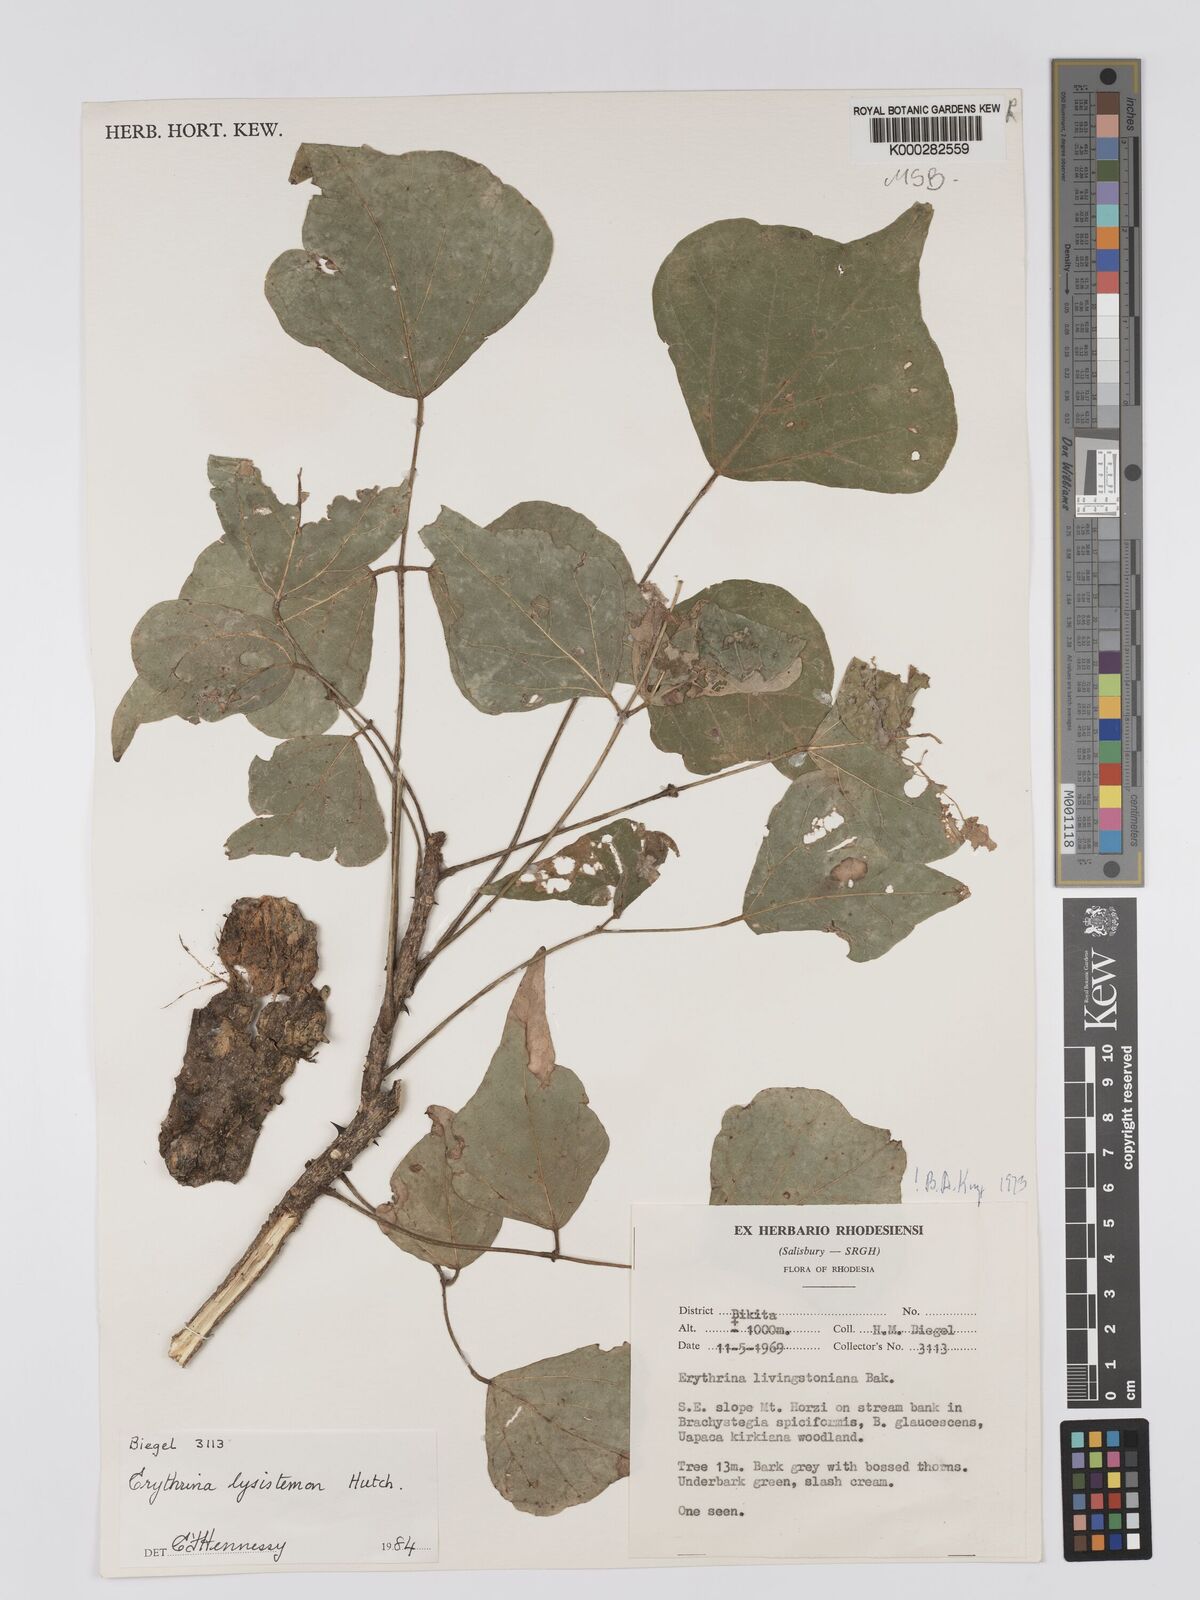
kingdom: Plantae
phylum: Tracheophyta
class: Magnoliopsida
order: Fabales
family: Fabaceae
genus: Erythrina
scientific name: Erythrina lysistemon
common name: Common coral tree
